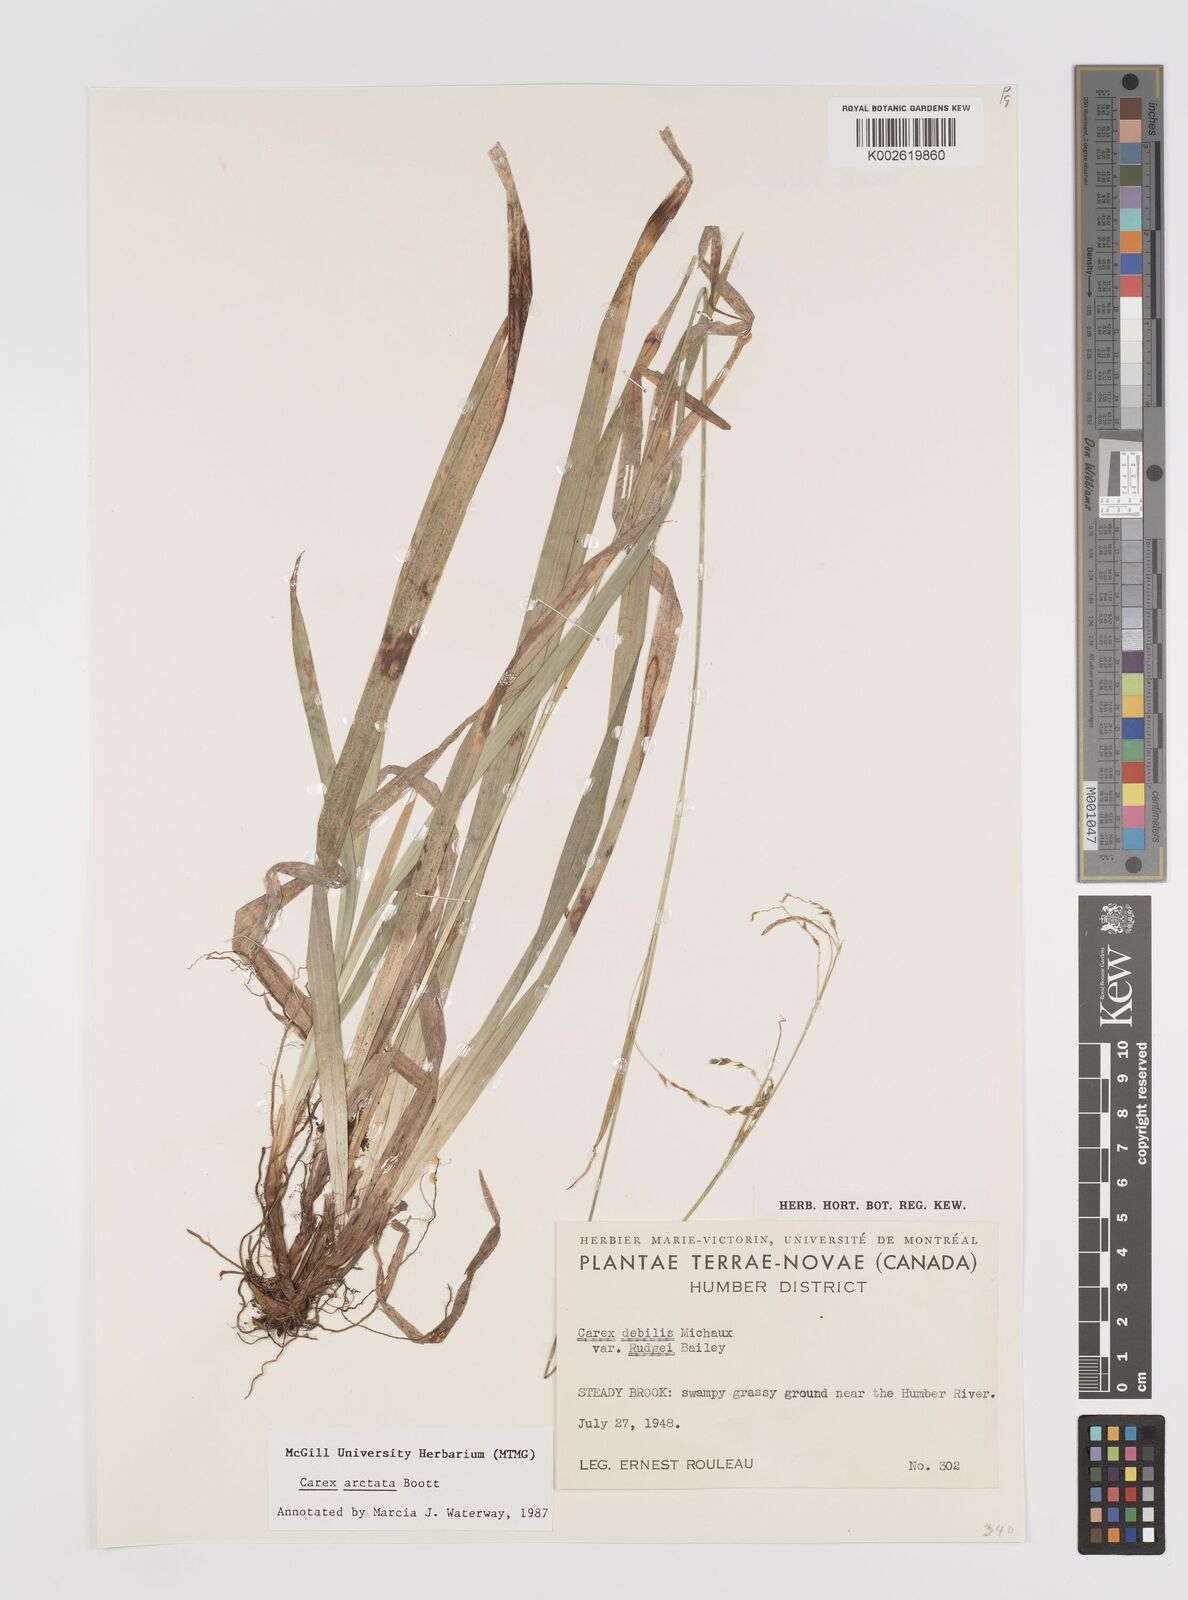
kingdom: Plantae
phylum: Tracheophyta
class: Liliopsida
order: Poales
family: Cyperaceae
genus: Carex
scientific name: Carex arctata
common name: Black sedge
